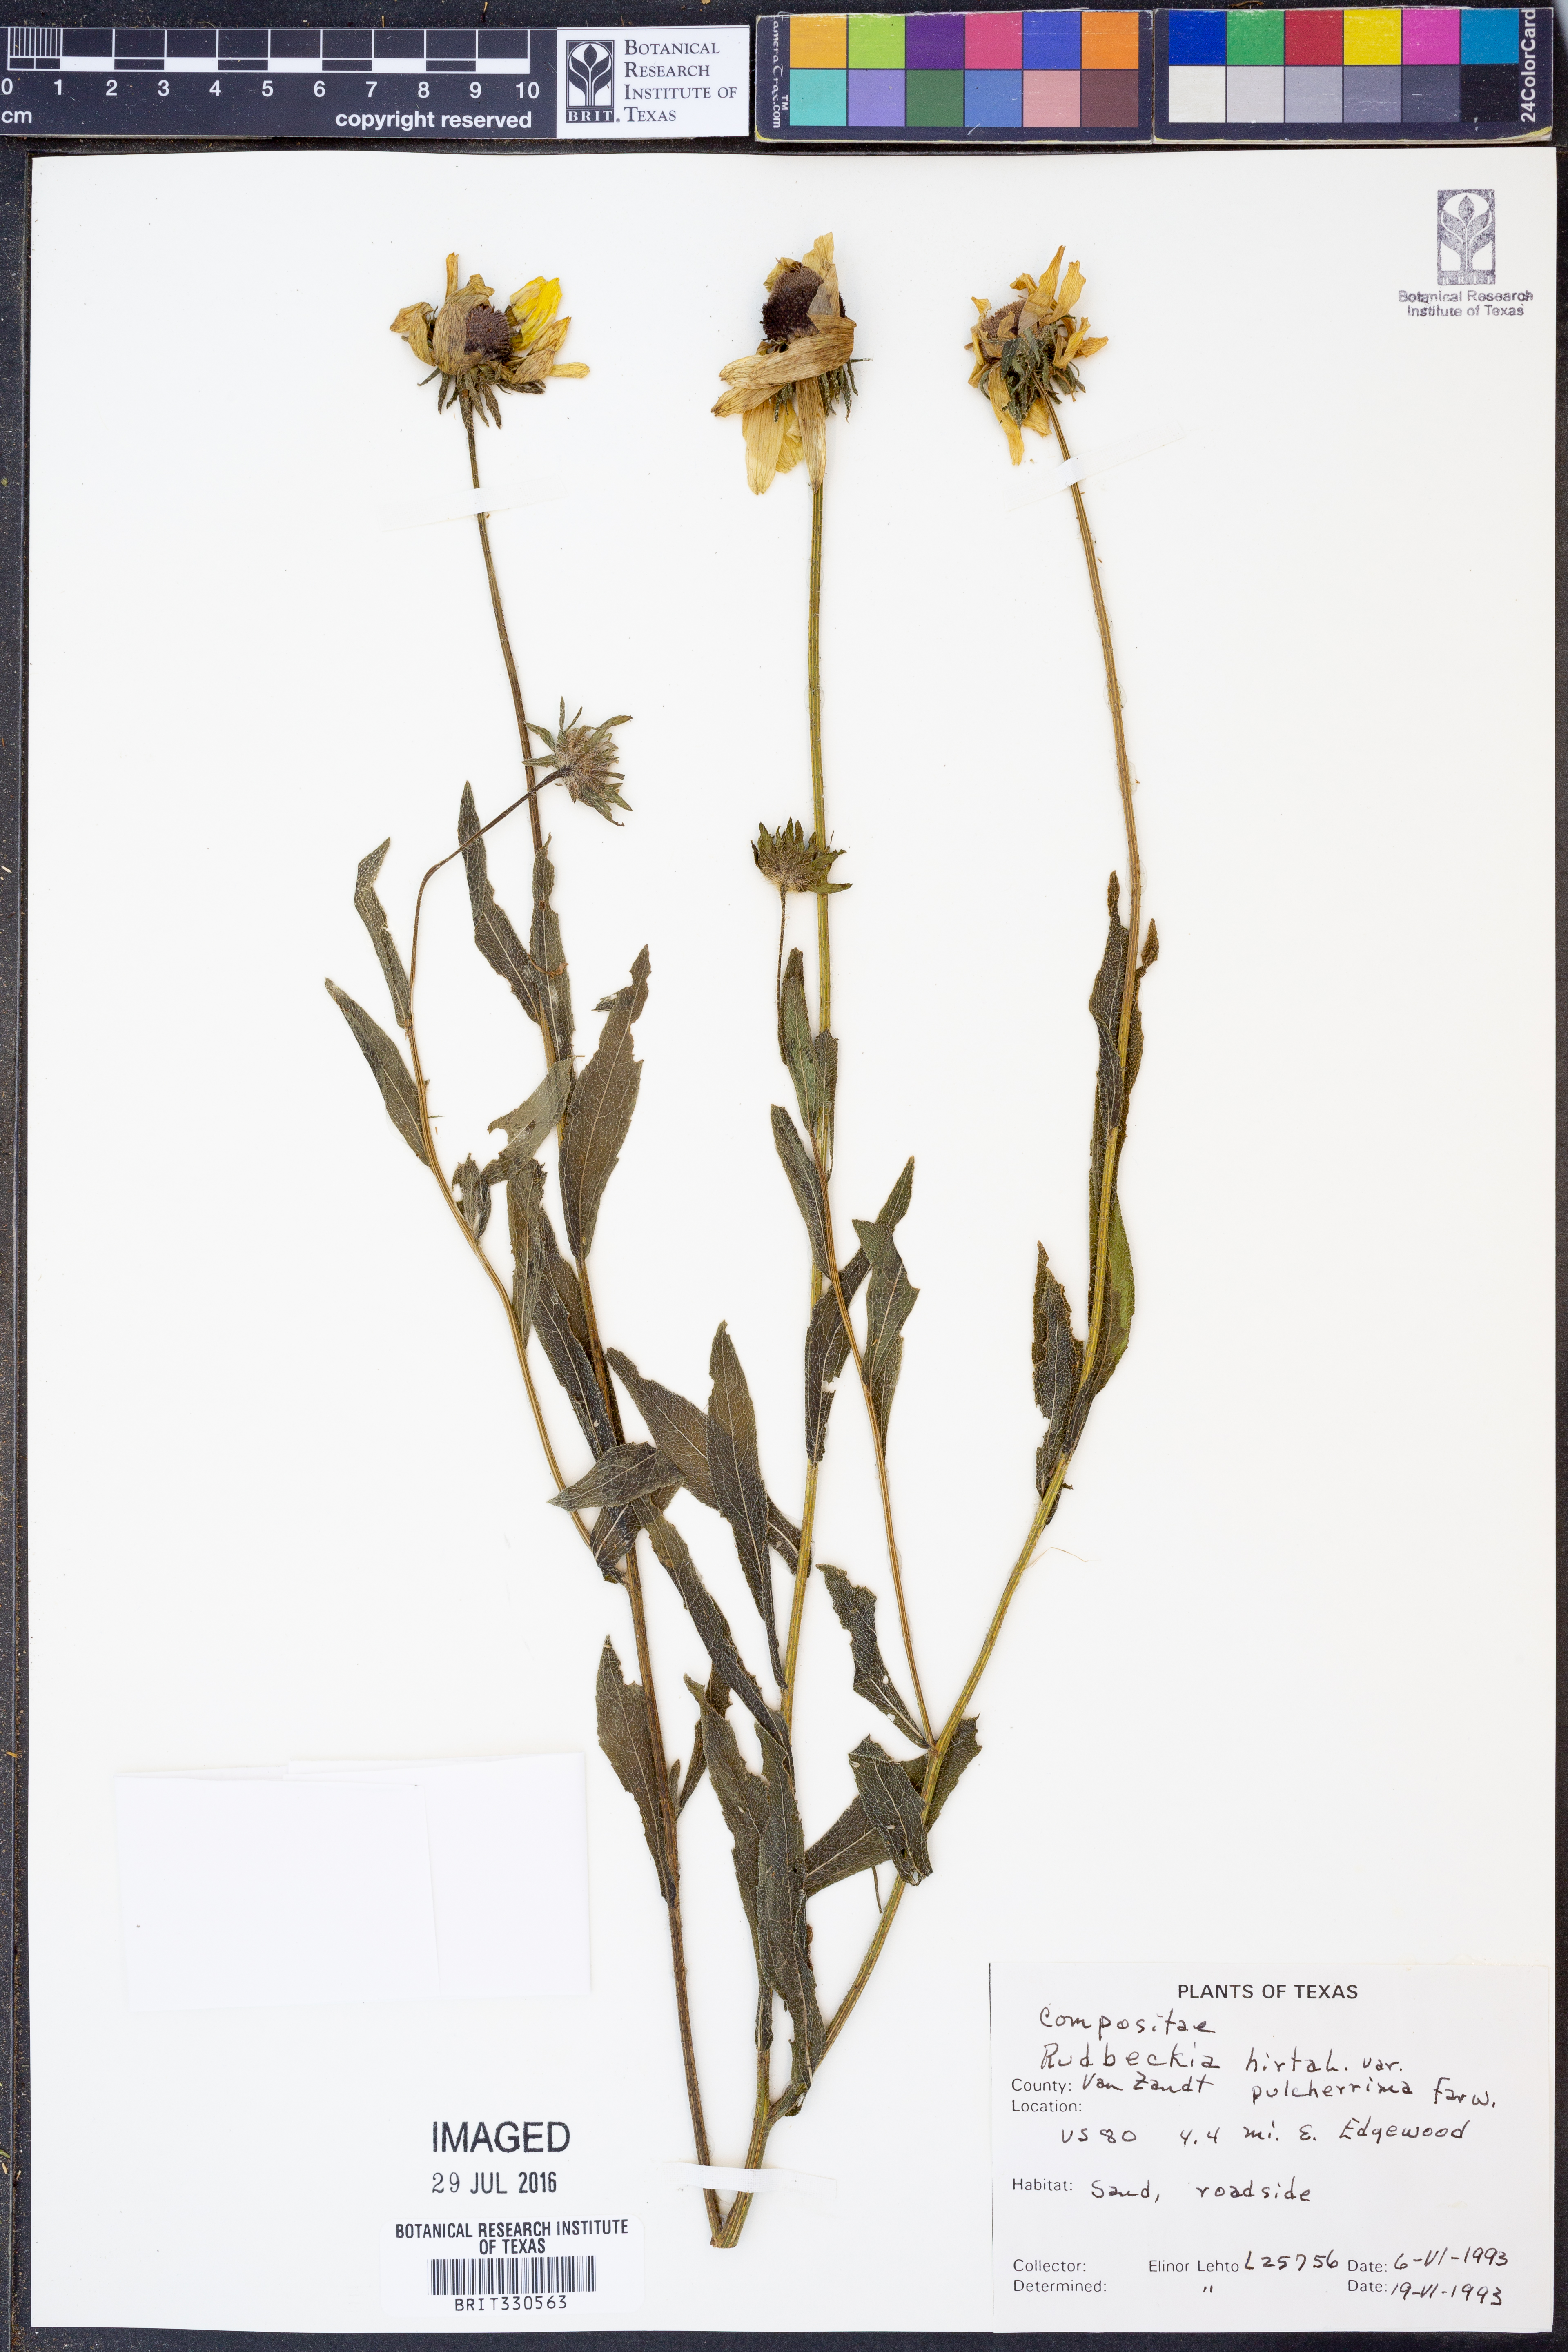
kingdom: Plantae
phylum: Tracheophyta
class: Magnoliopsida
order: Asterales
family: Asteraceae
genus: Rudbeckia
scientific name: Rudbeckia hirta
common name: Black-eyed-susan
